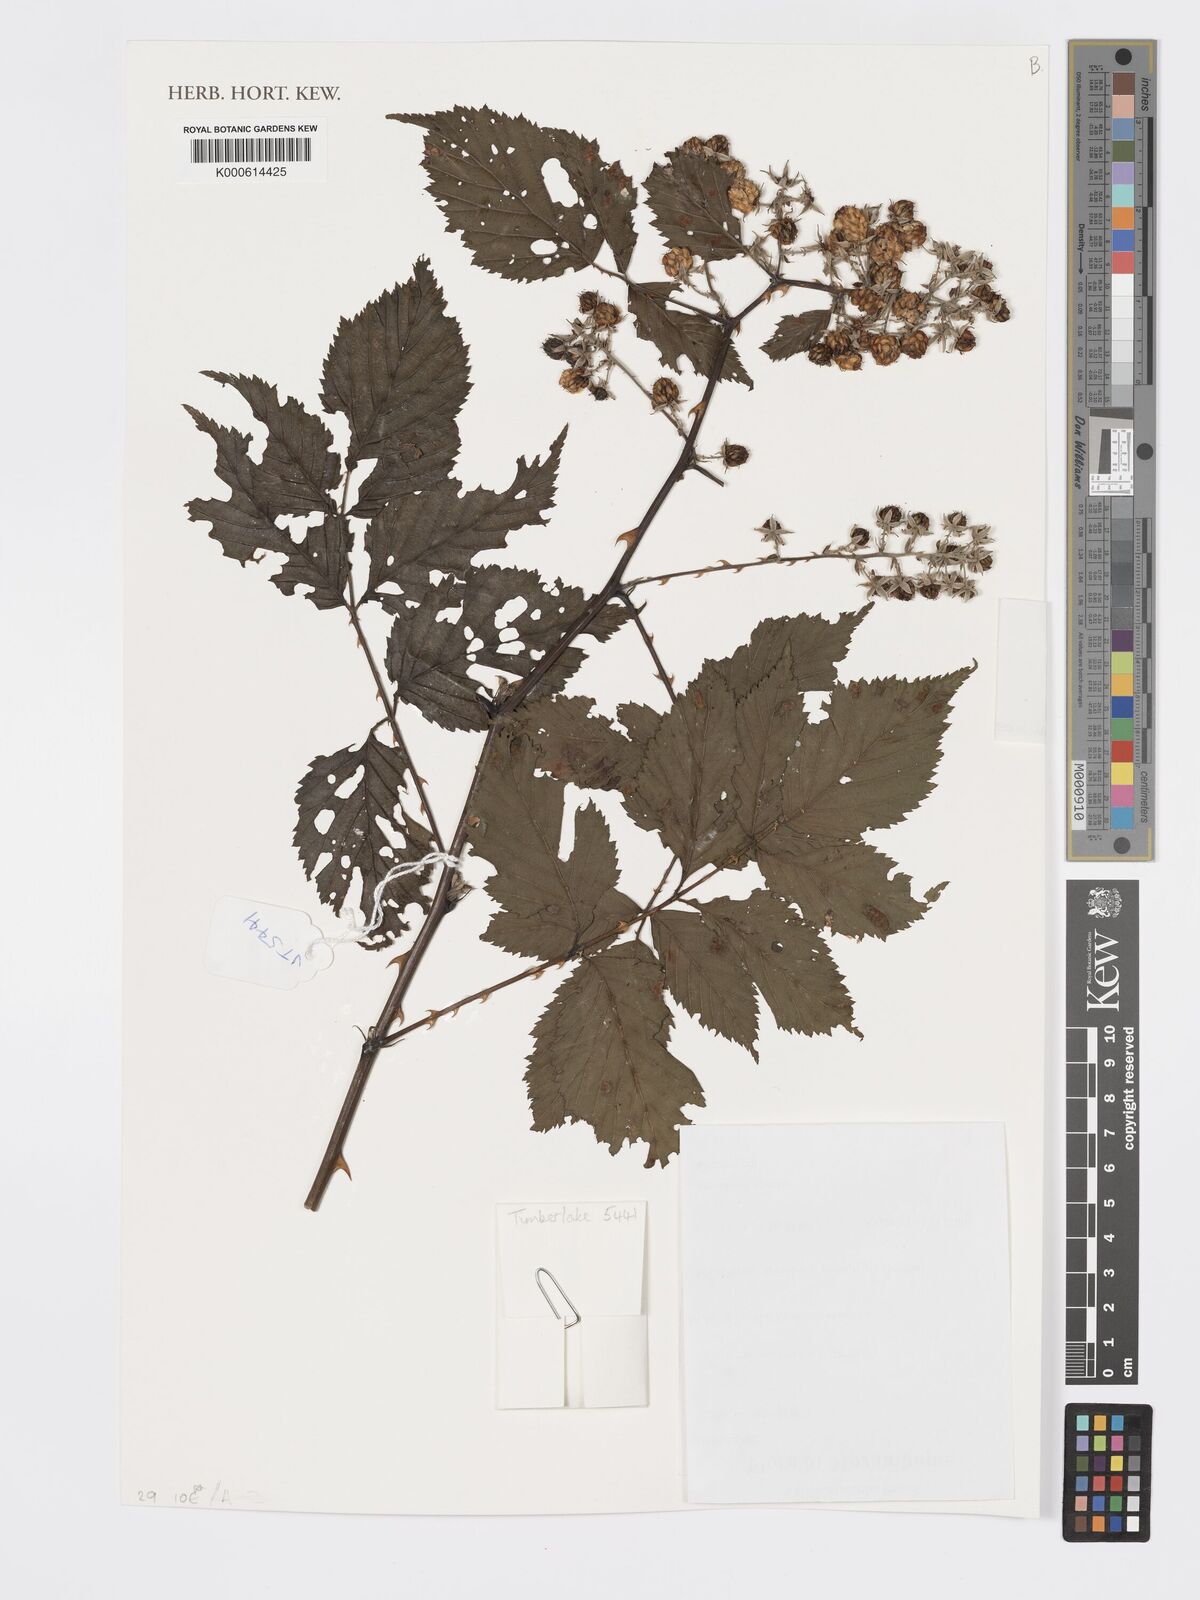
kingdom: Plantae
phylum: Tracheophyta
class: Magnoliopsida
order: Rosales
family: Rosaceae
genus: Rubus
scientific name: Rubus pinnatus
